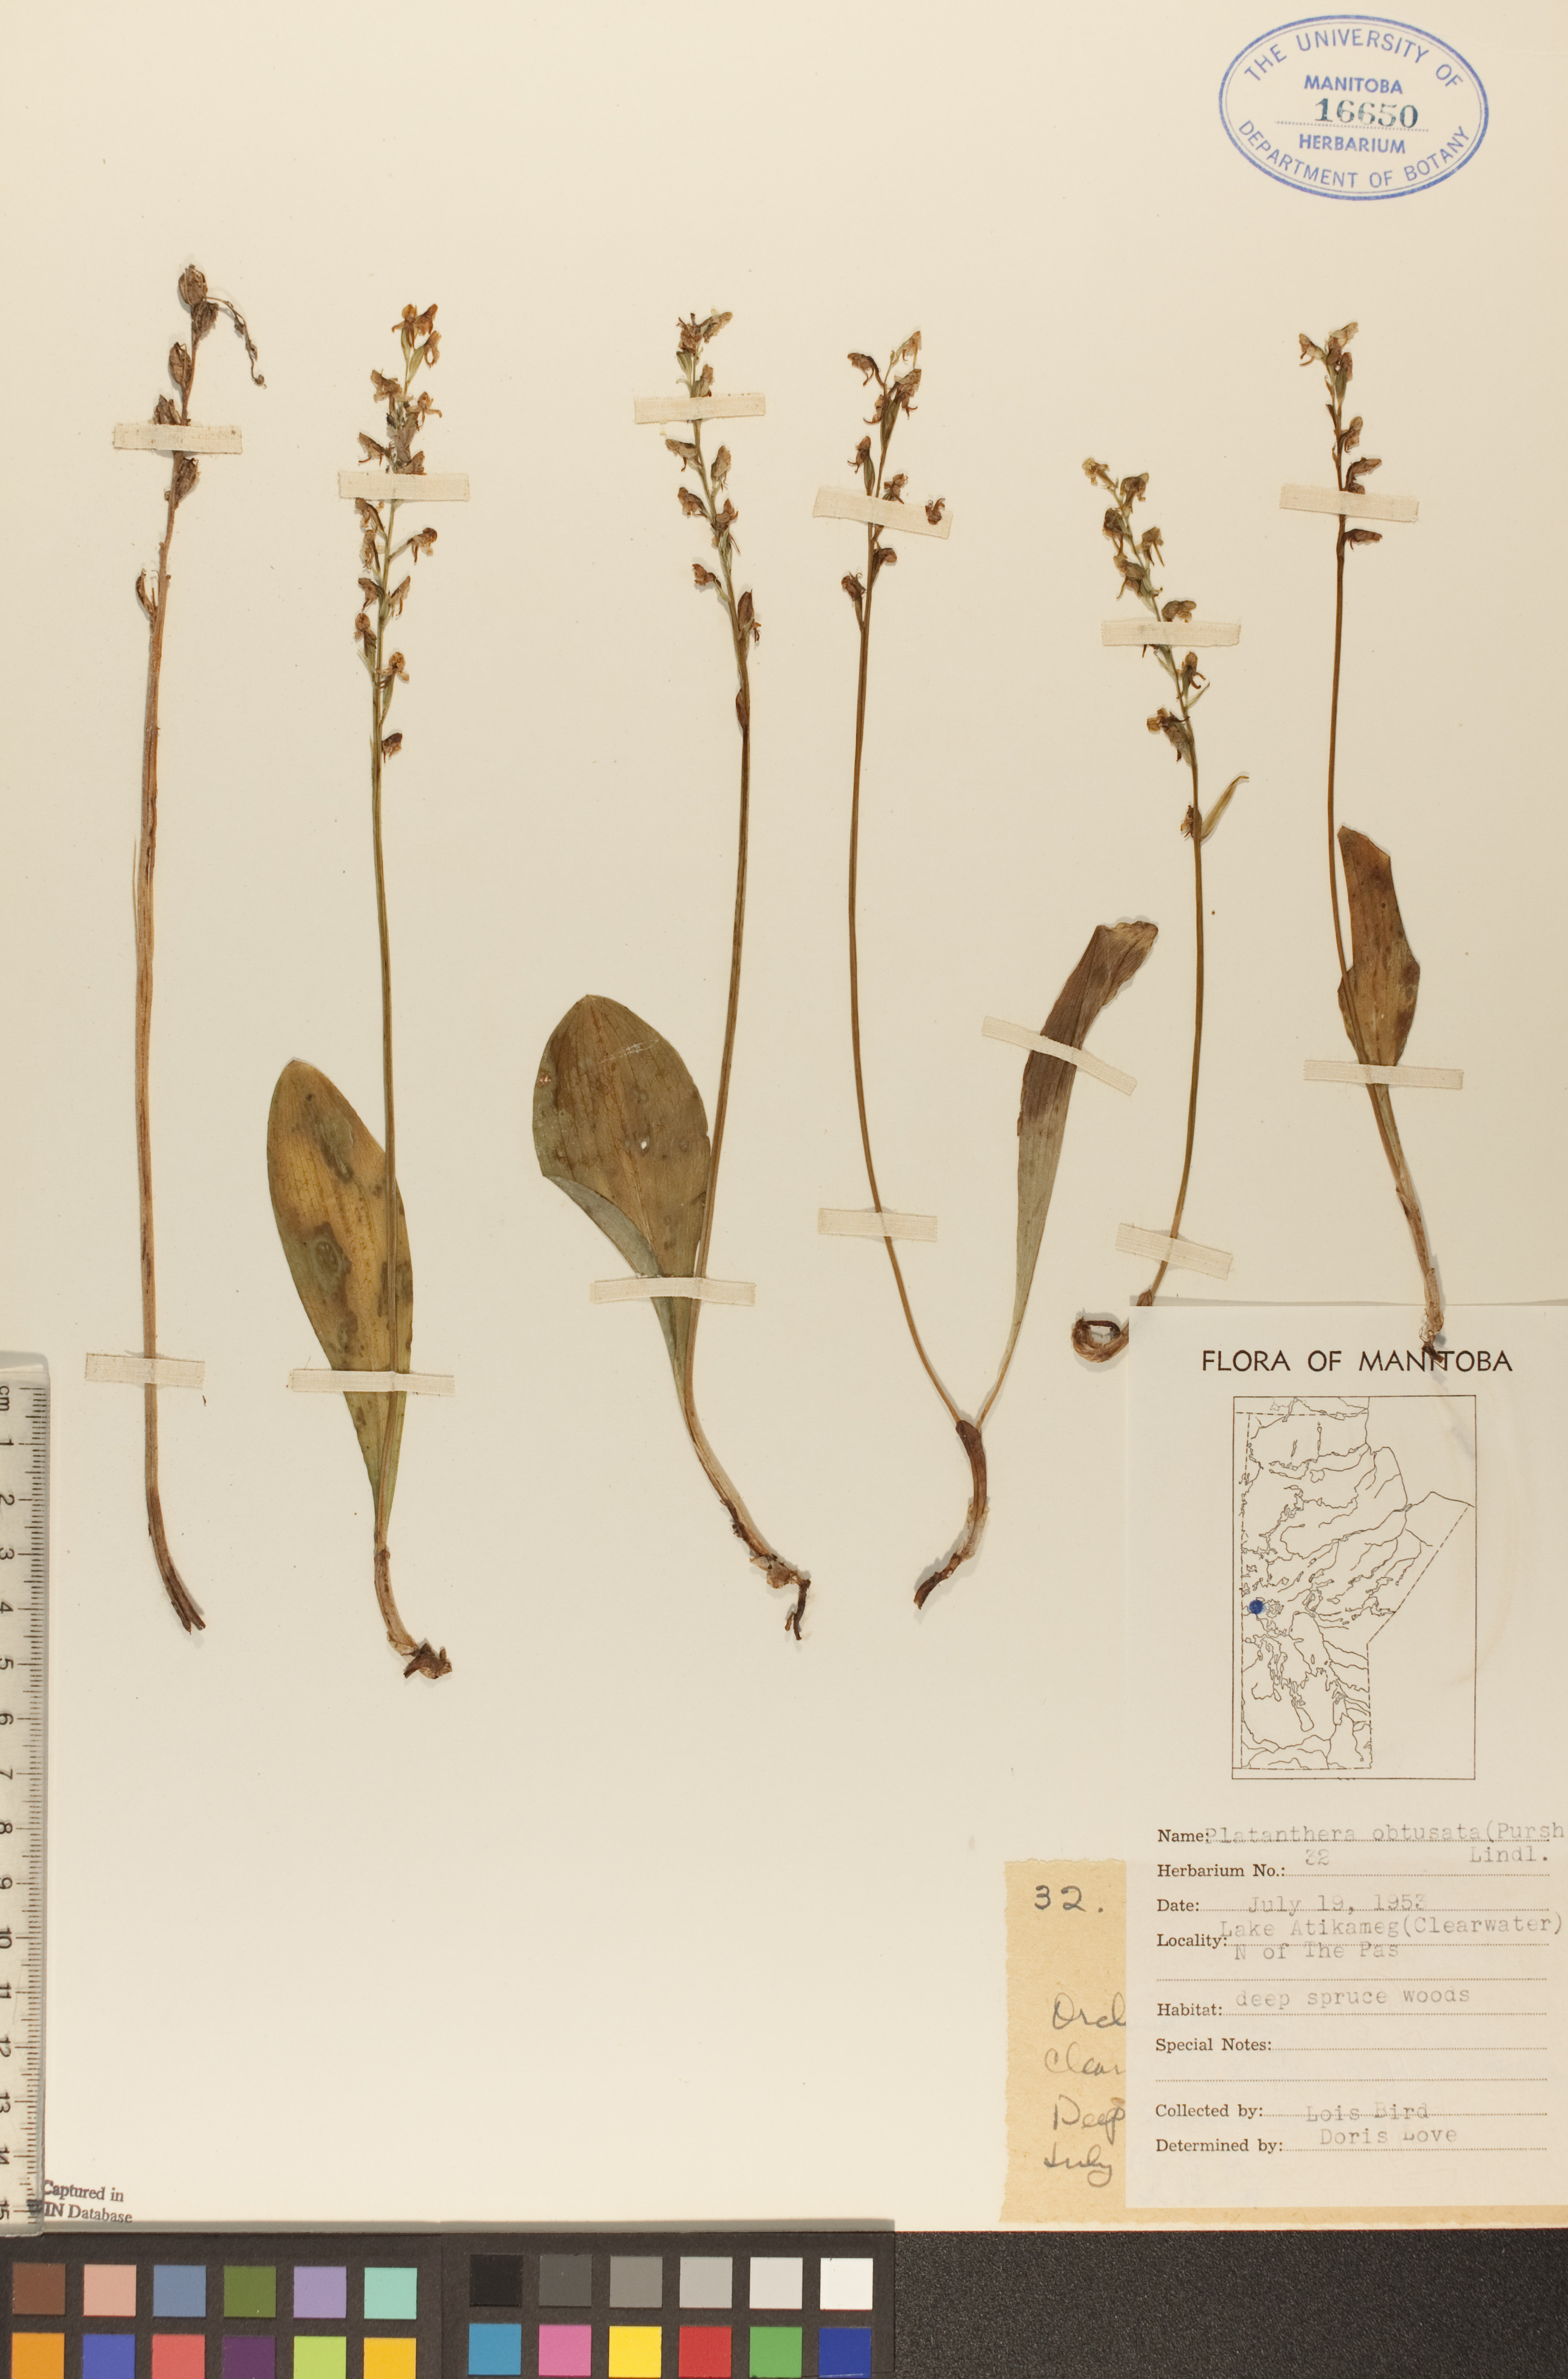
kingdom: Plantae
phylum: Tracheophyta
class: Liliopsida
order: Asparagales
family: Orchidaceae
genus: Platanthera
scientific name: Platanthera obtusata
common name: Blunt bog orchid
